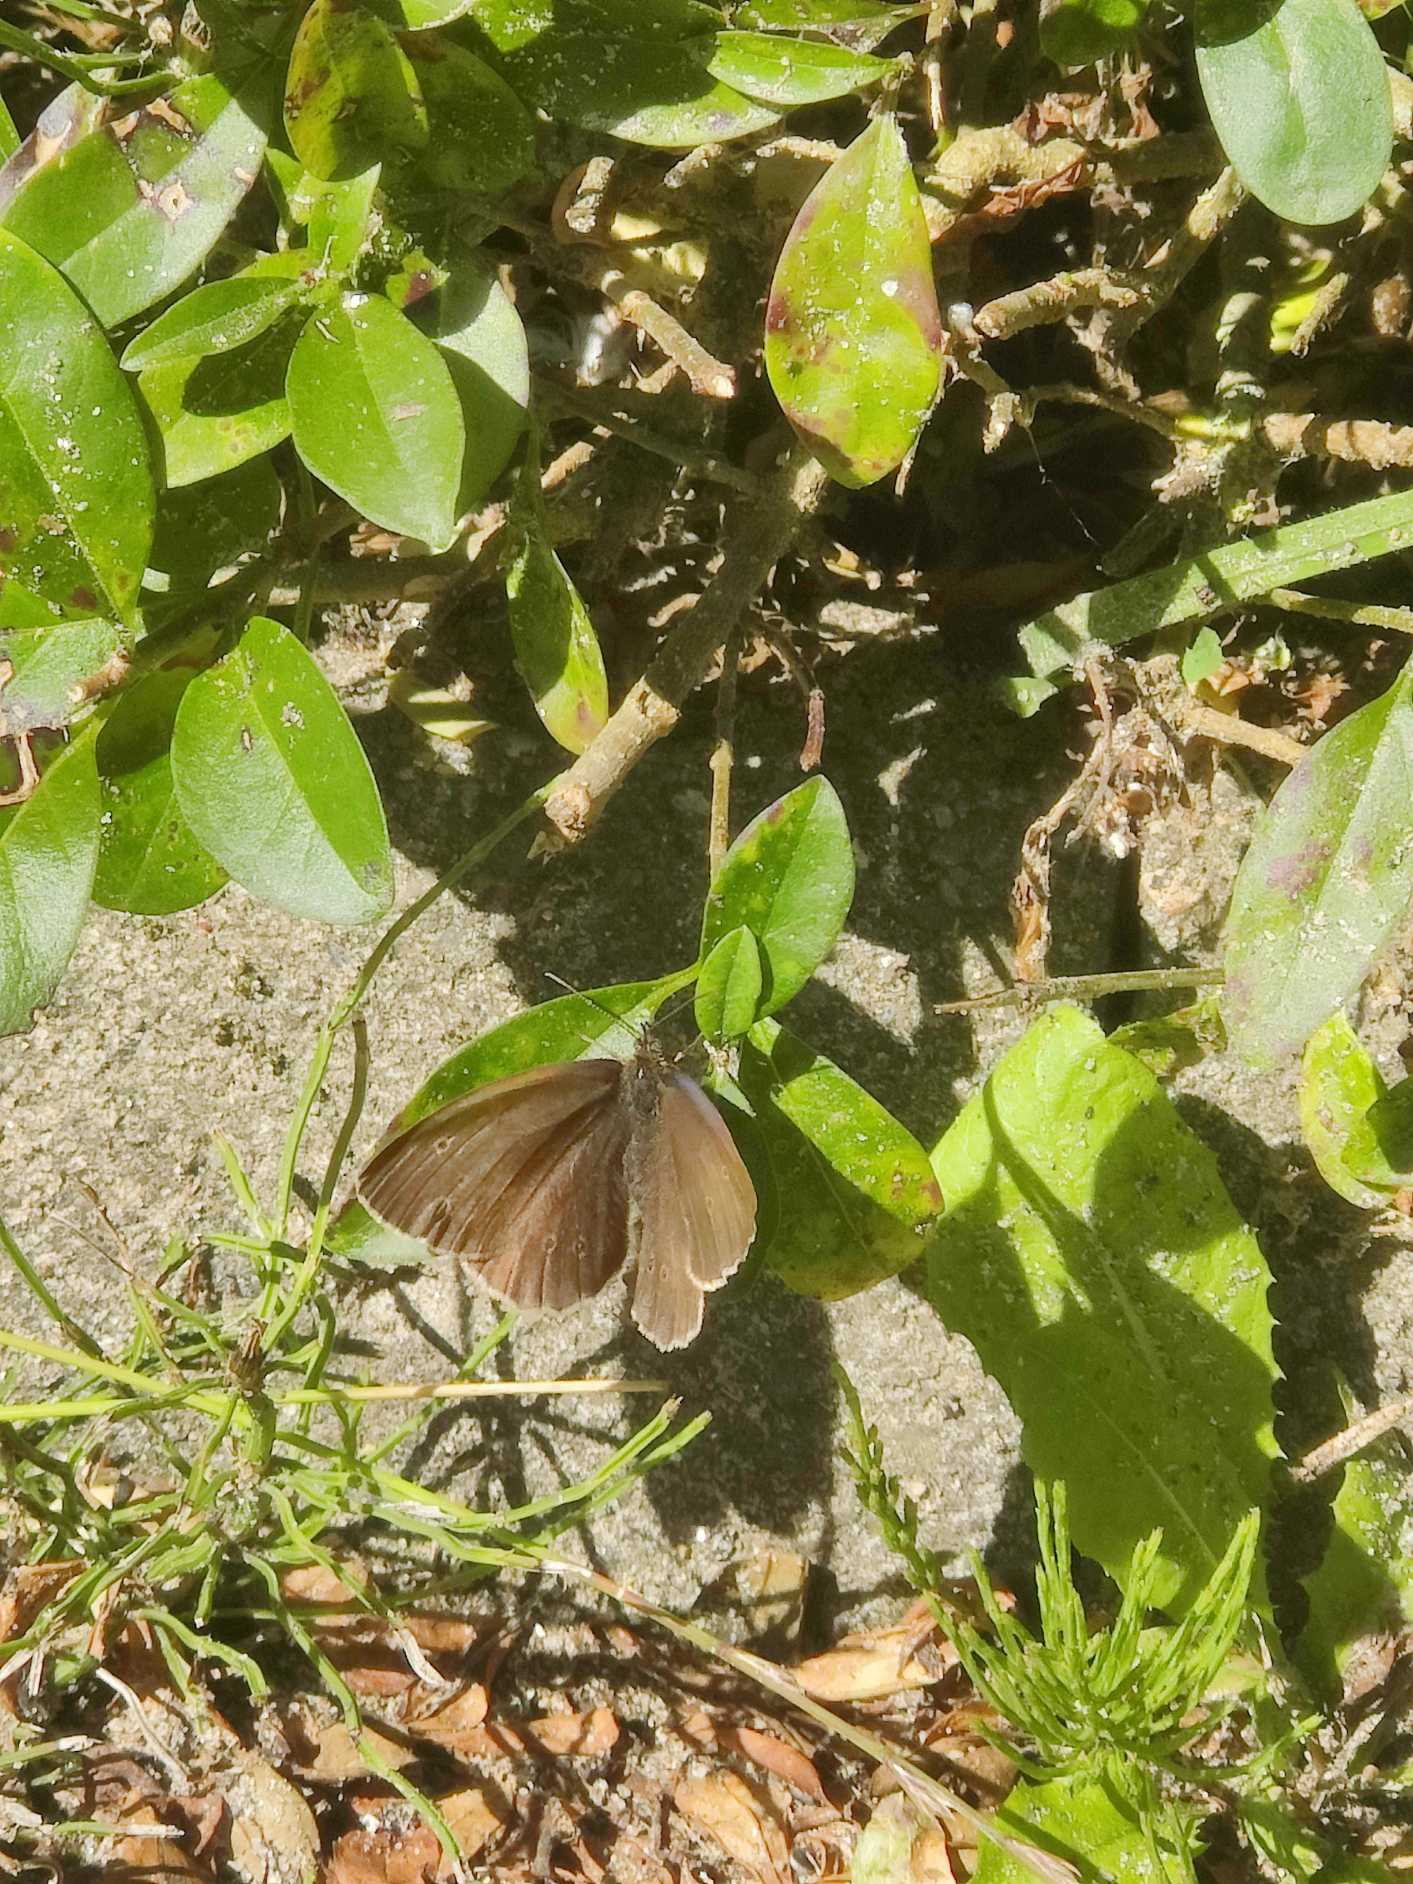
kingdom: Animalia
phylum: Arthropoda
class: Insecta
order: Lepidoptera
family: Nymphalidae
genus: Aphantopus
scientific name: Aphantopus hyperantus
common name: Engrandøje
